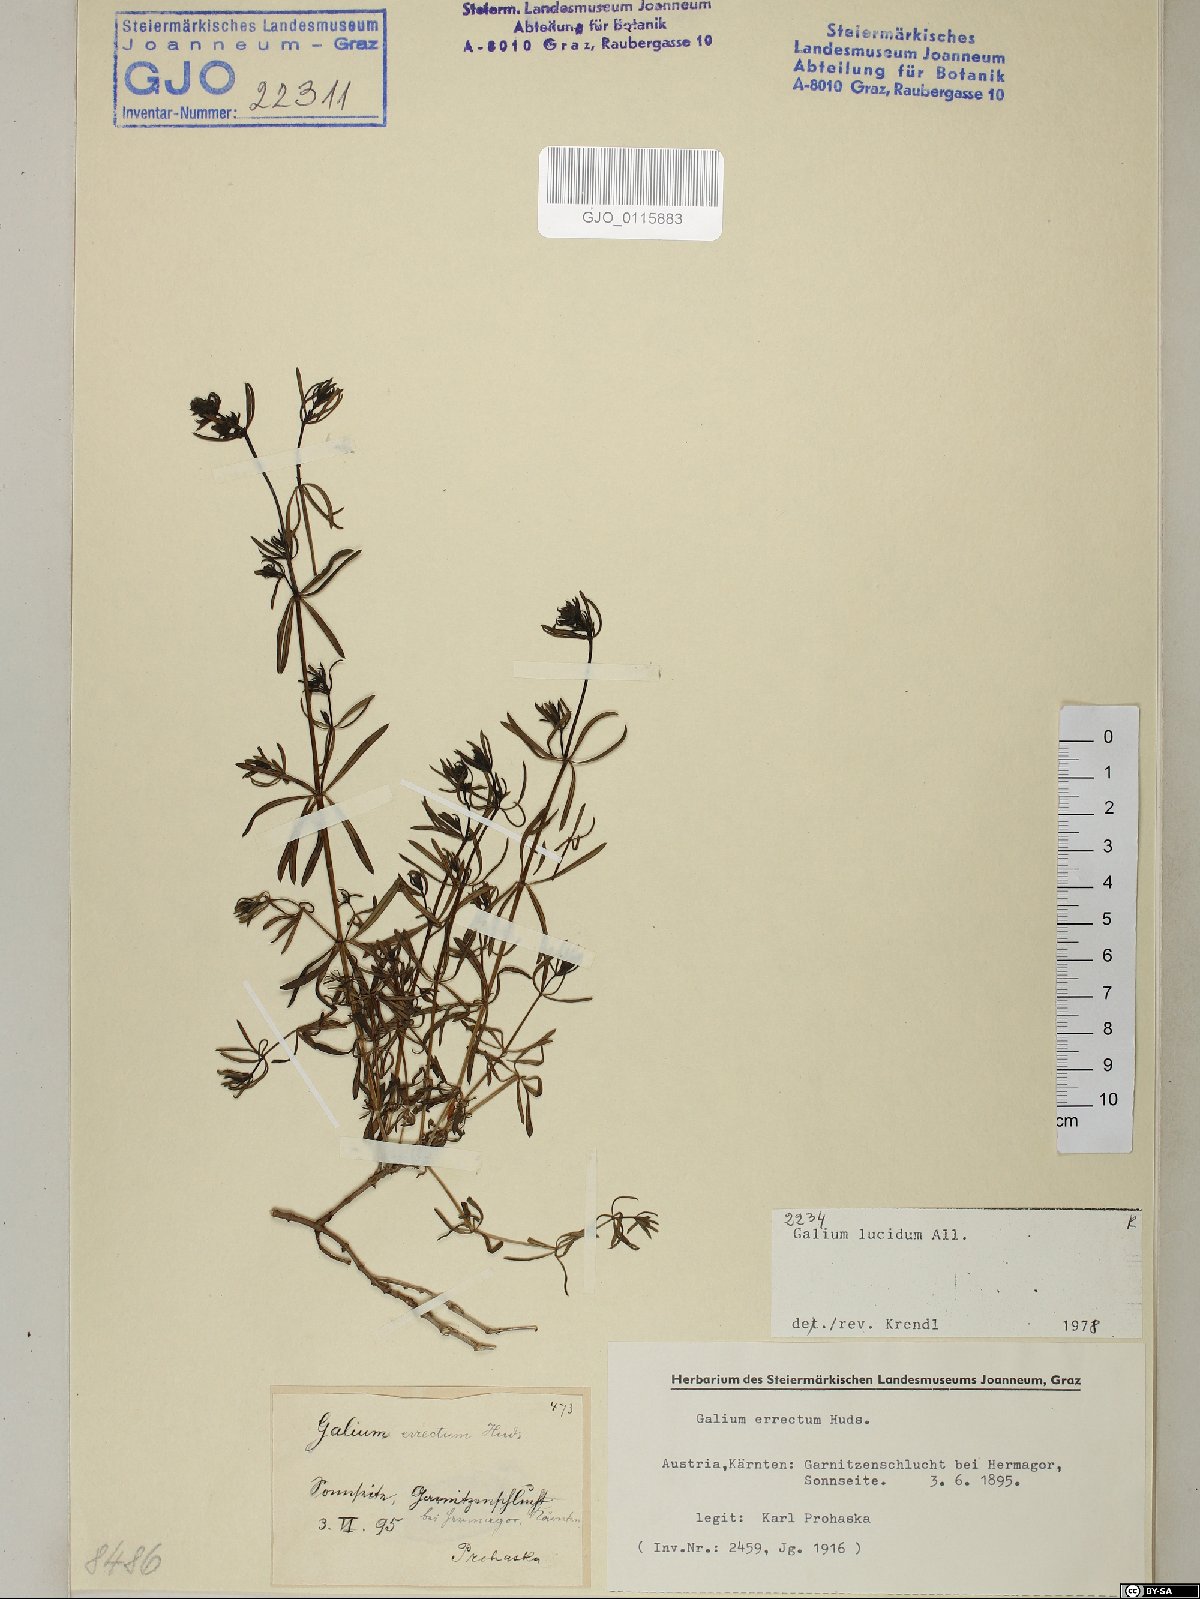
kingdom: Plantae
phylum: Tracheophyta
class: Magnoliopsida
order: Gentianales
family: Rubiaceae
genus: Galium
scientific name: Galium lucidum
